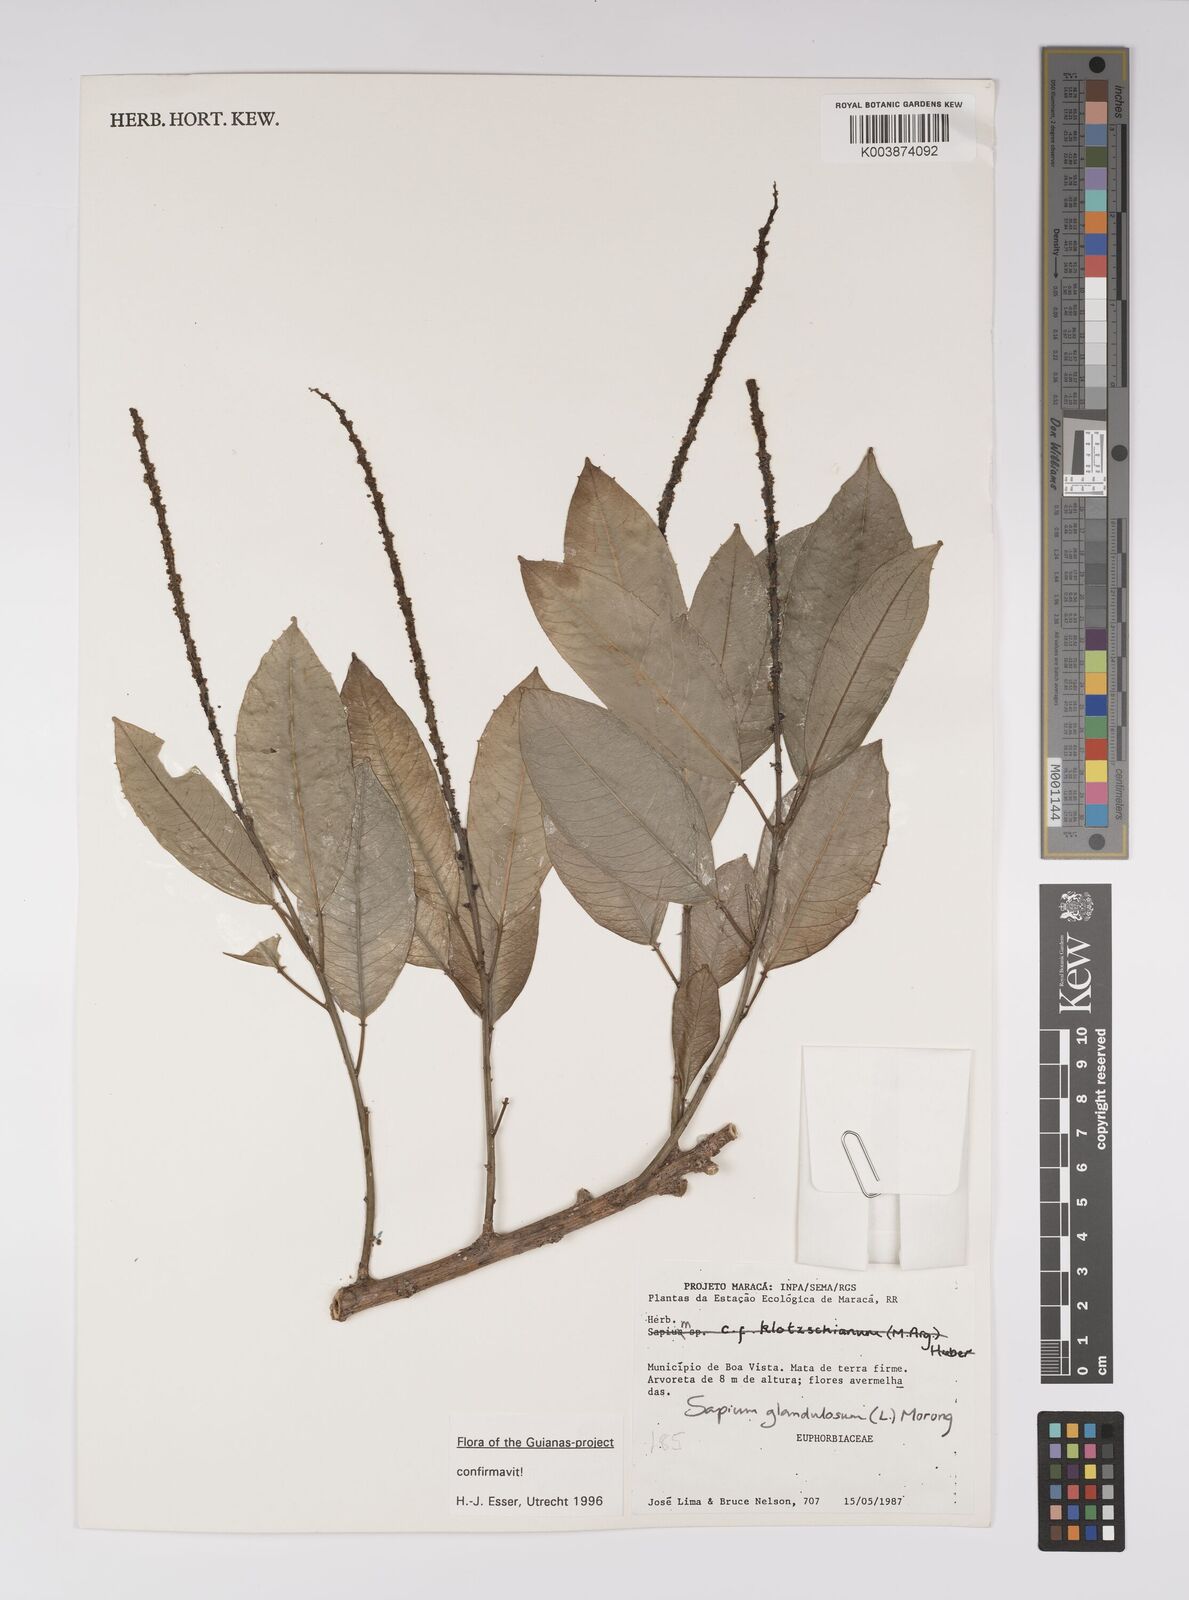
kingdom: Plantae
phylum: Tracheophyta
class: Magnoliopsida
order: Malpighiales
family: Euphorbiaceae
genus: Sapium
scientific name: Sapium glandulosum
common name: Milktree
